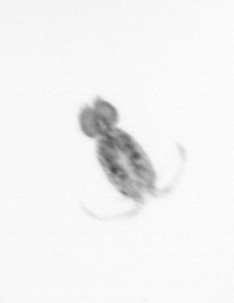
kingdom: Animalia
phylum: Arthropoda
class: Copepoda
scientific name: Copepoda
